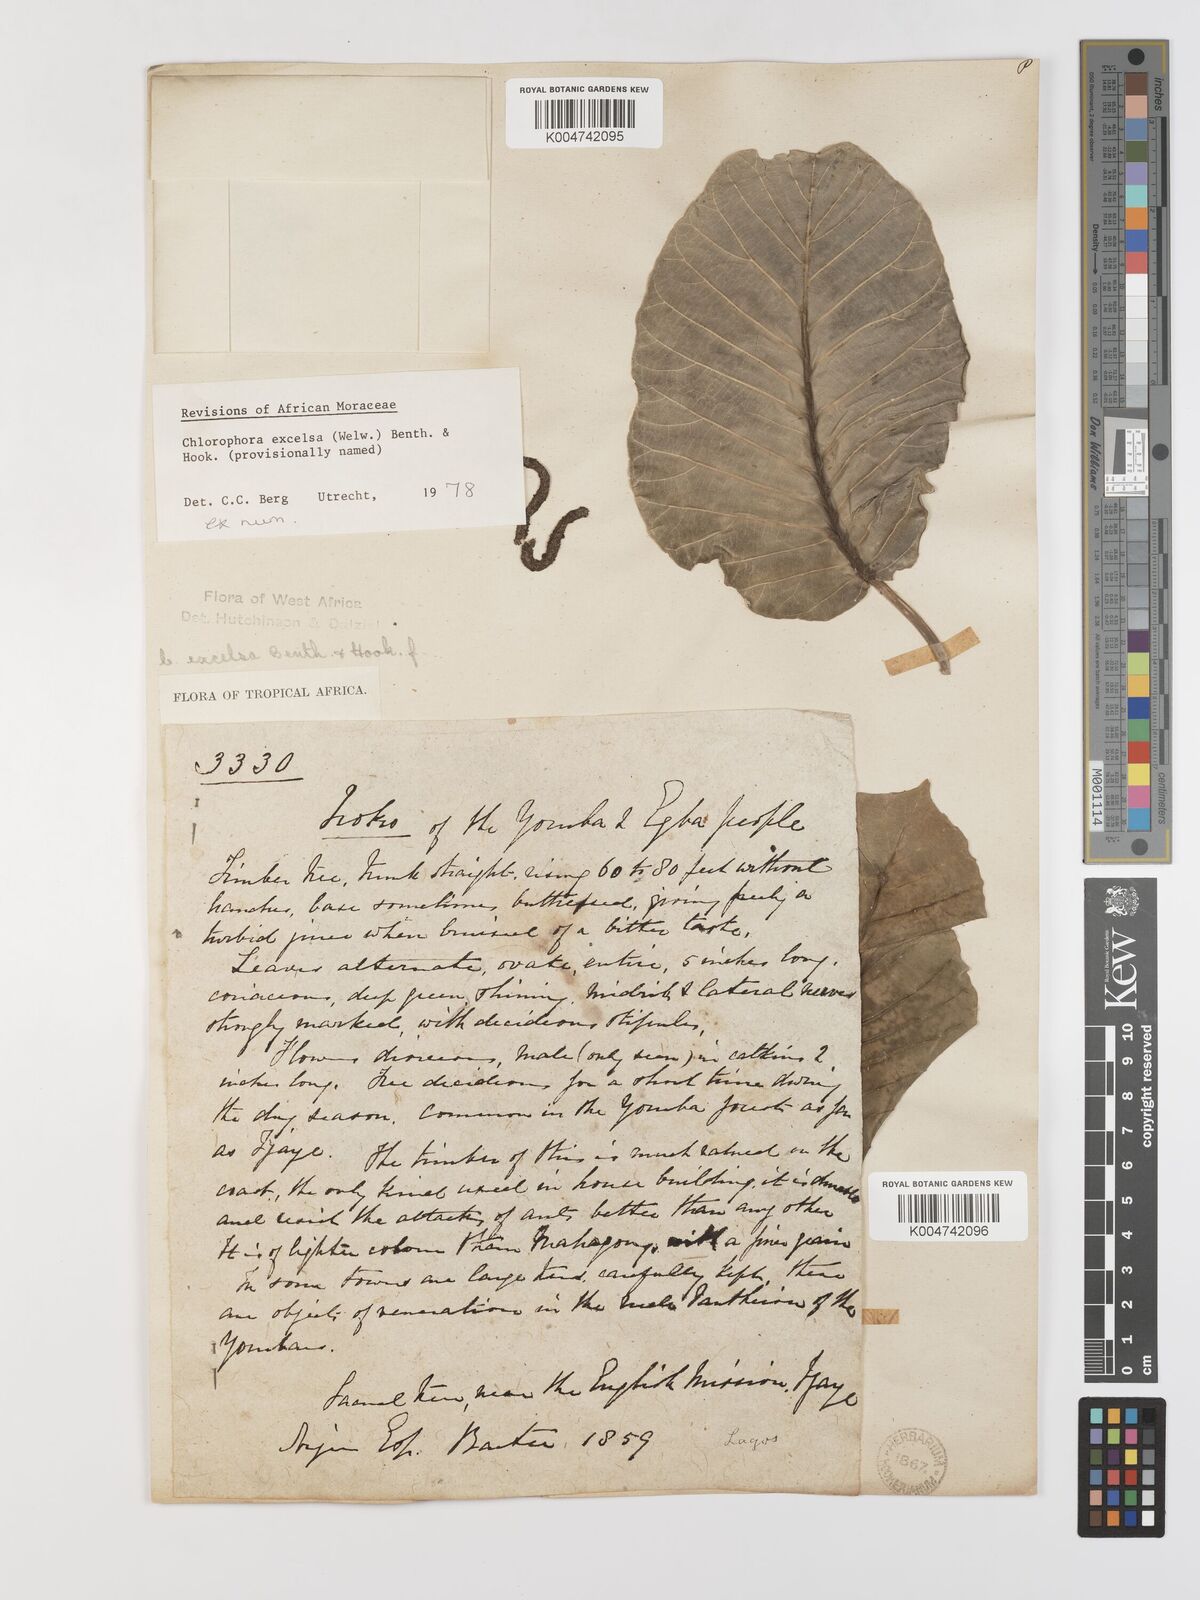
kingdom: Plantae
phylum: Tracheophyta
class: Magnoliopsida
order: Rosales
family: Moraceae
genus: Milicia
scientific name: Milicia excelsa
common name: African teak
